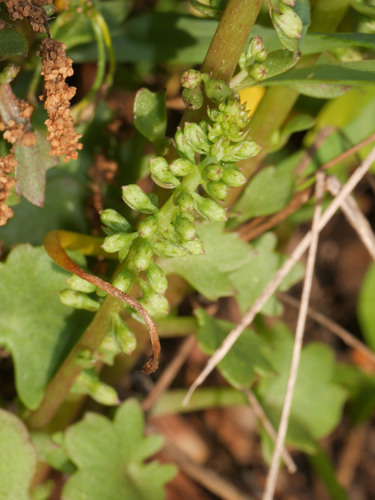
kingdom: Plantae
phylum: Tracheophyta
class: Magnoliopsida
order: Saxifragales
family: Crassulaceae
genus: Umbilicus
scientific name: Umbilicus rupestris
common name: Navelwort
